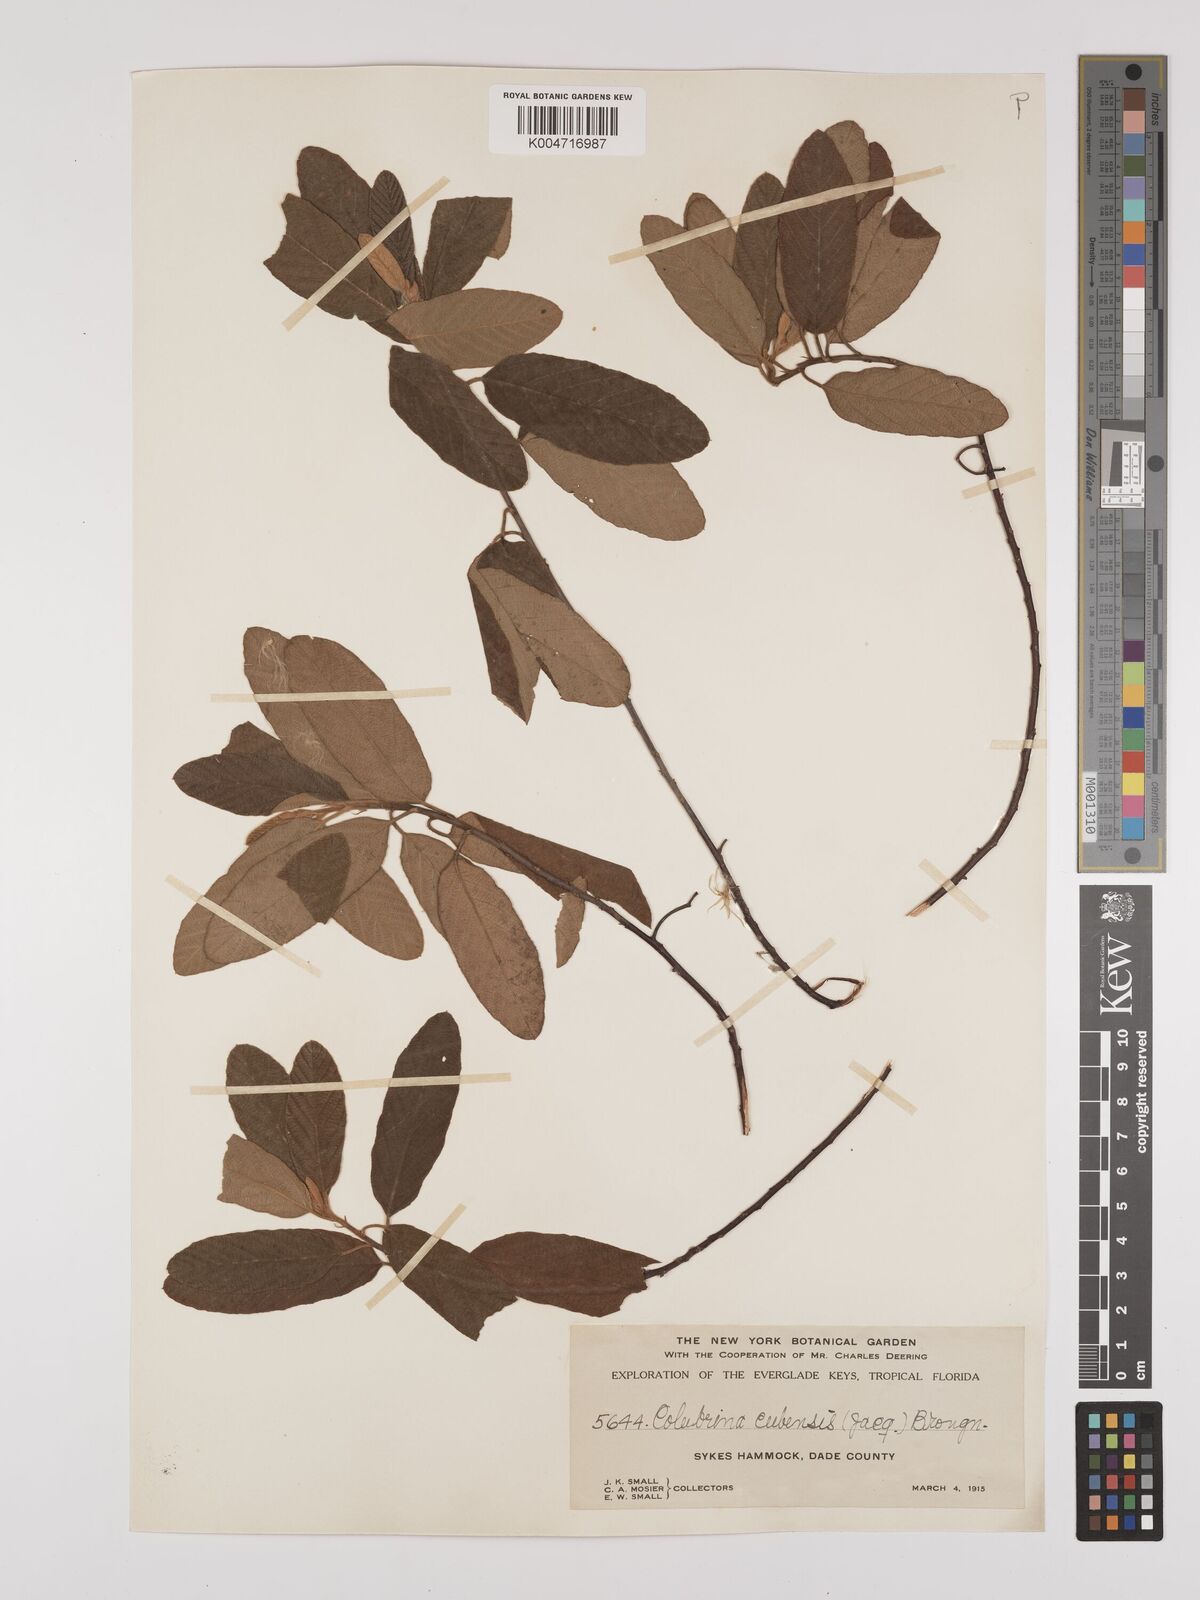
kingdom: Plantae
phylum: Tracheophyta
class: Magnoliopsida
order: Rosales
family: Rhamnaceae
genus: Colubrina
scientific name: Colubrina cubensis
